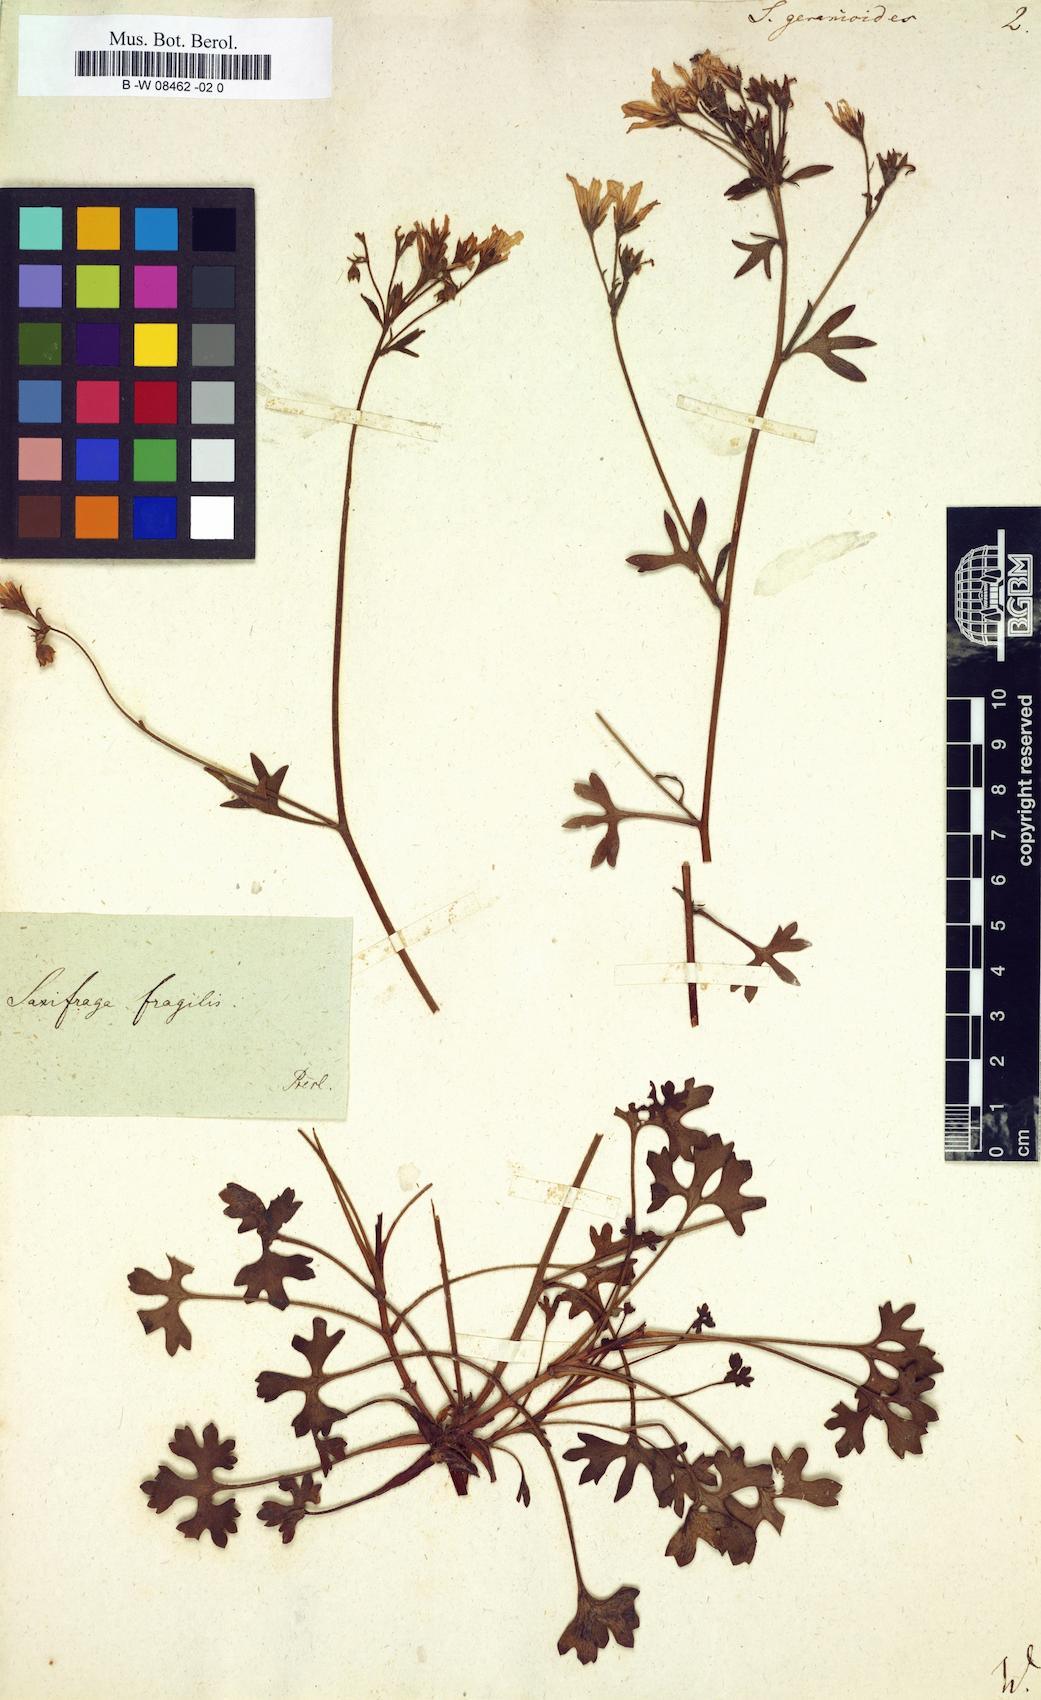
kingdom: Plantae
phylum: Tracheophyta
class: Magnoliopsida
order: Saxifragales
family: Saxifragaceae
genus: Saxifraga
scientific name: Saxifraga geranioides
